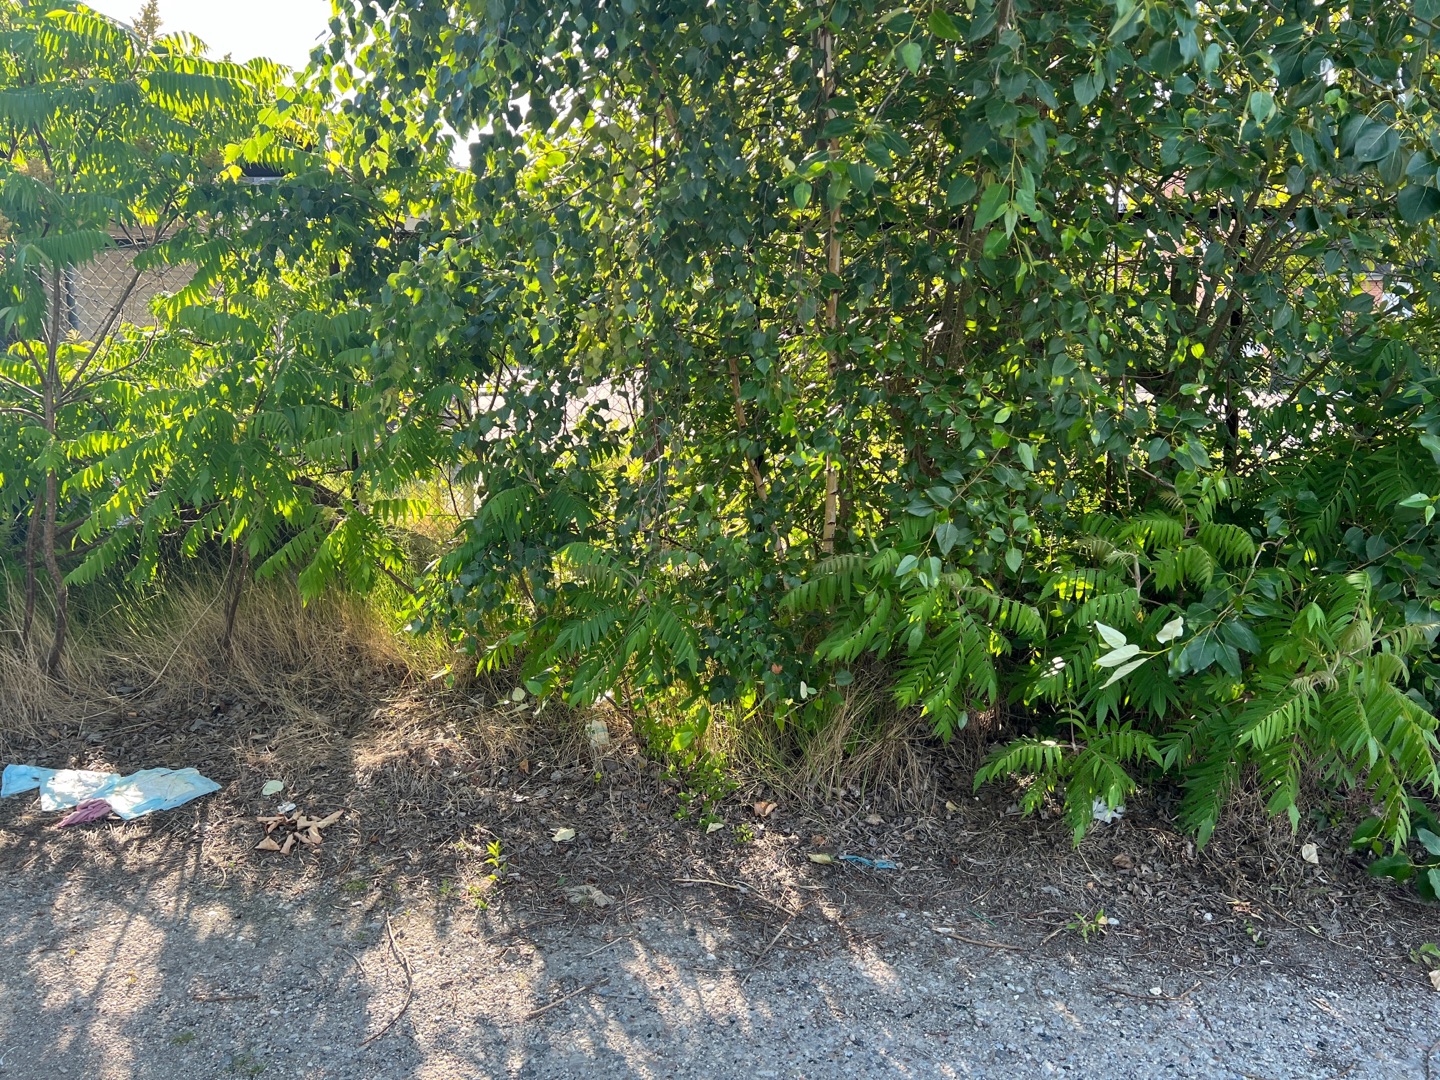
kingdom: Plantae
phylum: Tracheophyta
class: Magnoliopsida
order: Sapindales
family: Anacardiaceae
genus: Rhus
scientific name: Rhus typhina
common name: Hjortetaktræ
